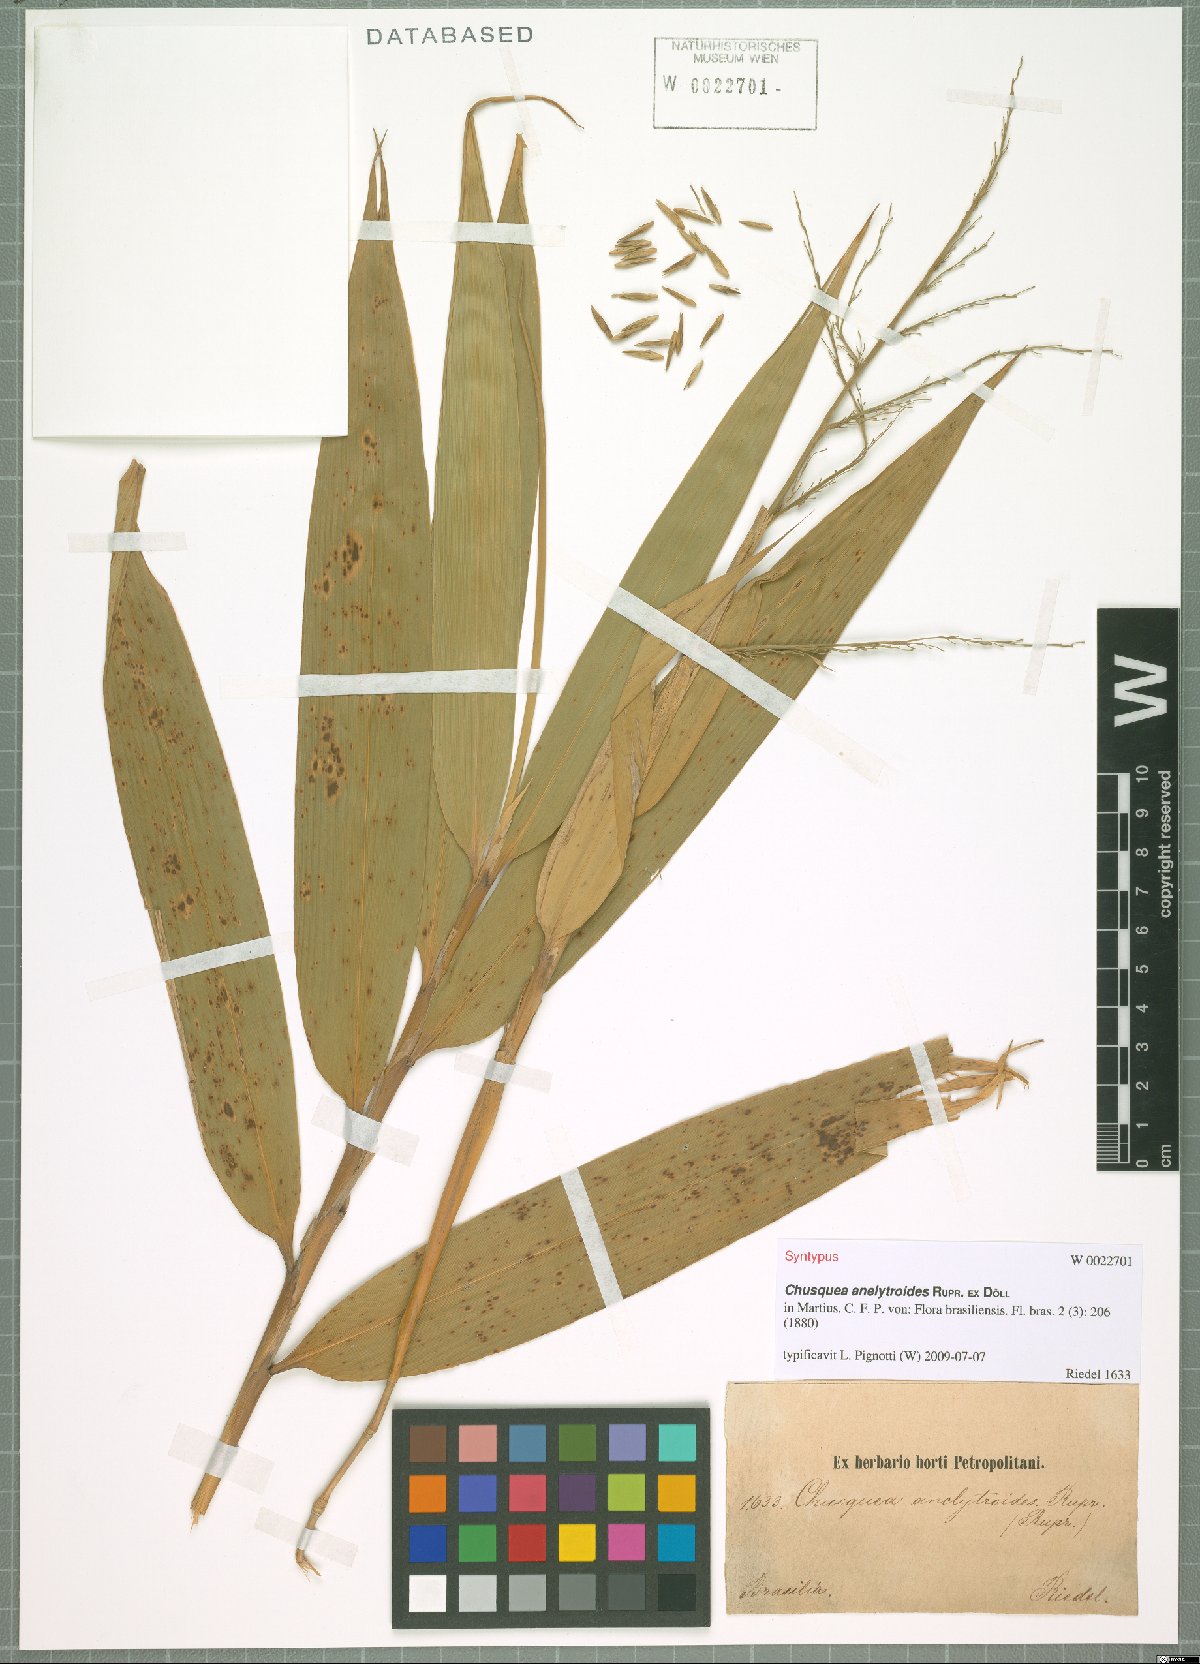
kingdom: Plantae
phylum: Tracheophyta
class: Liliopsida
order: Poales
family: Poaceae
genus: Chusquea
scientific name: Chusquea anelythroides
